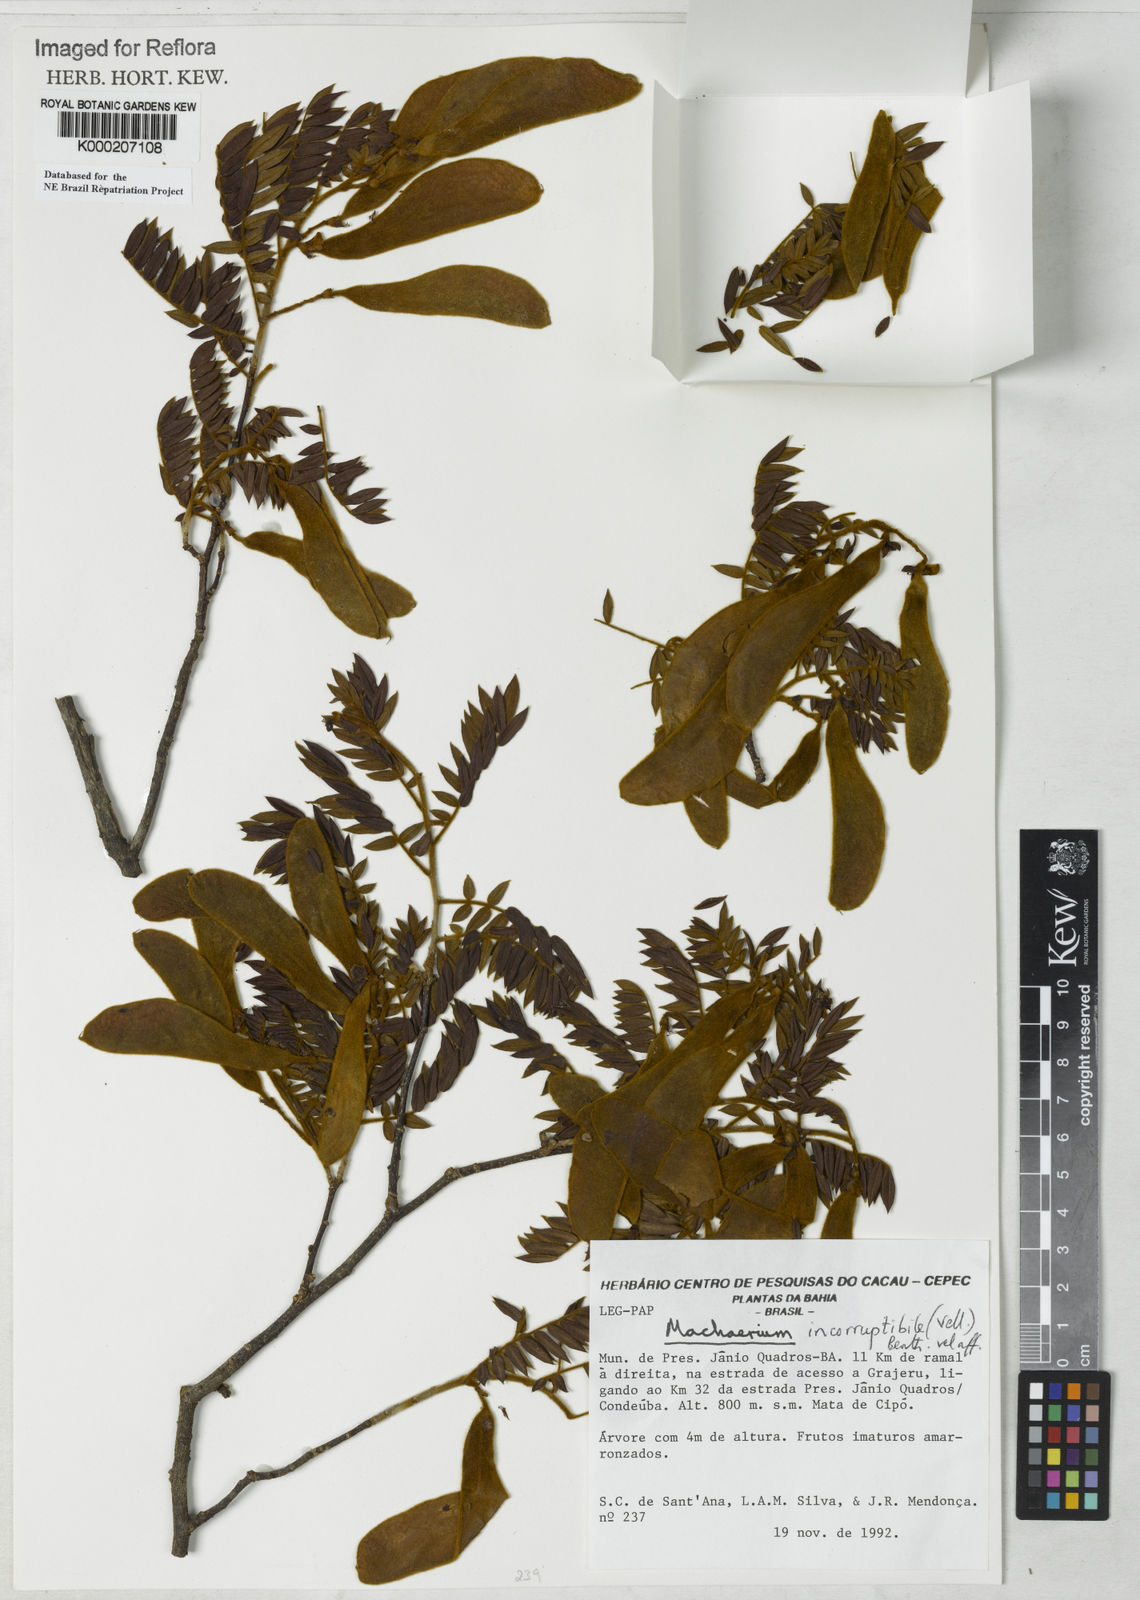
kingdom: Plantae
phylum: Tracheophyta
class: Magnoliopsida
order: Fabales
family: Fabaceae
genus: Machaerium
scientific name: Machaerium incorruptibile
